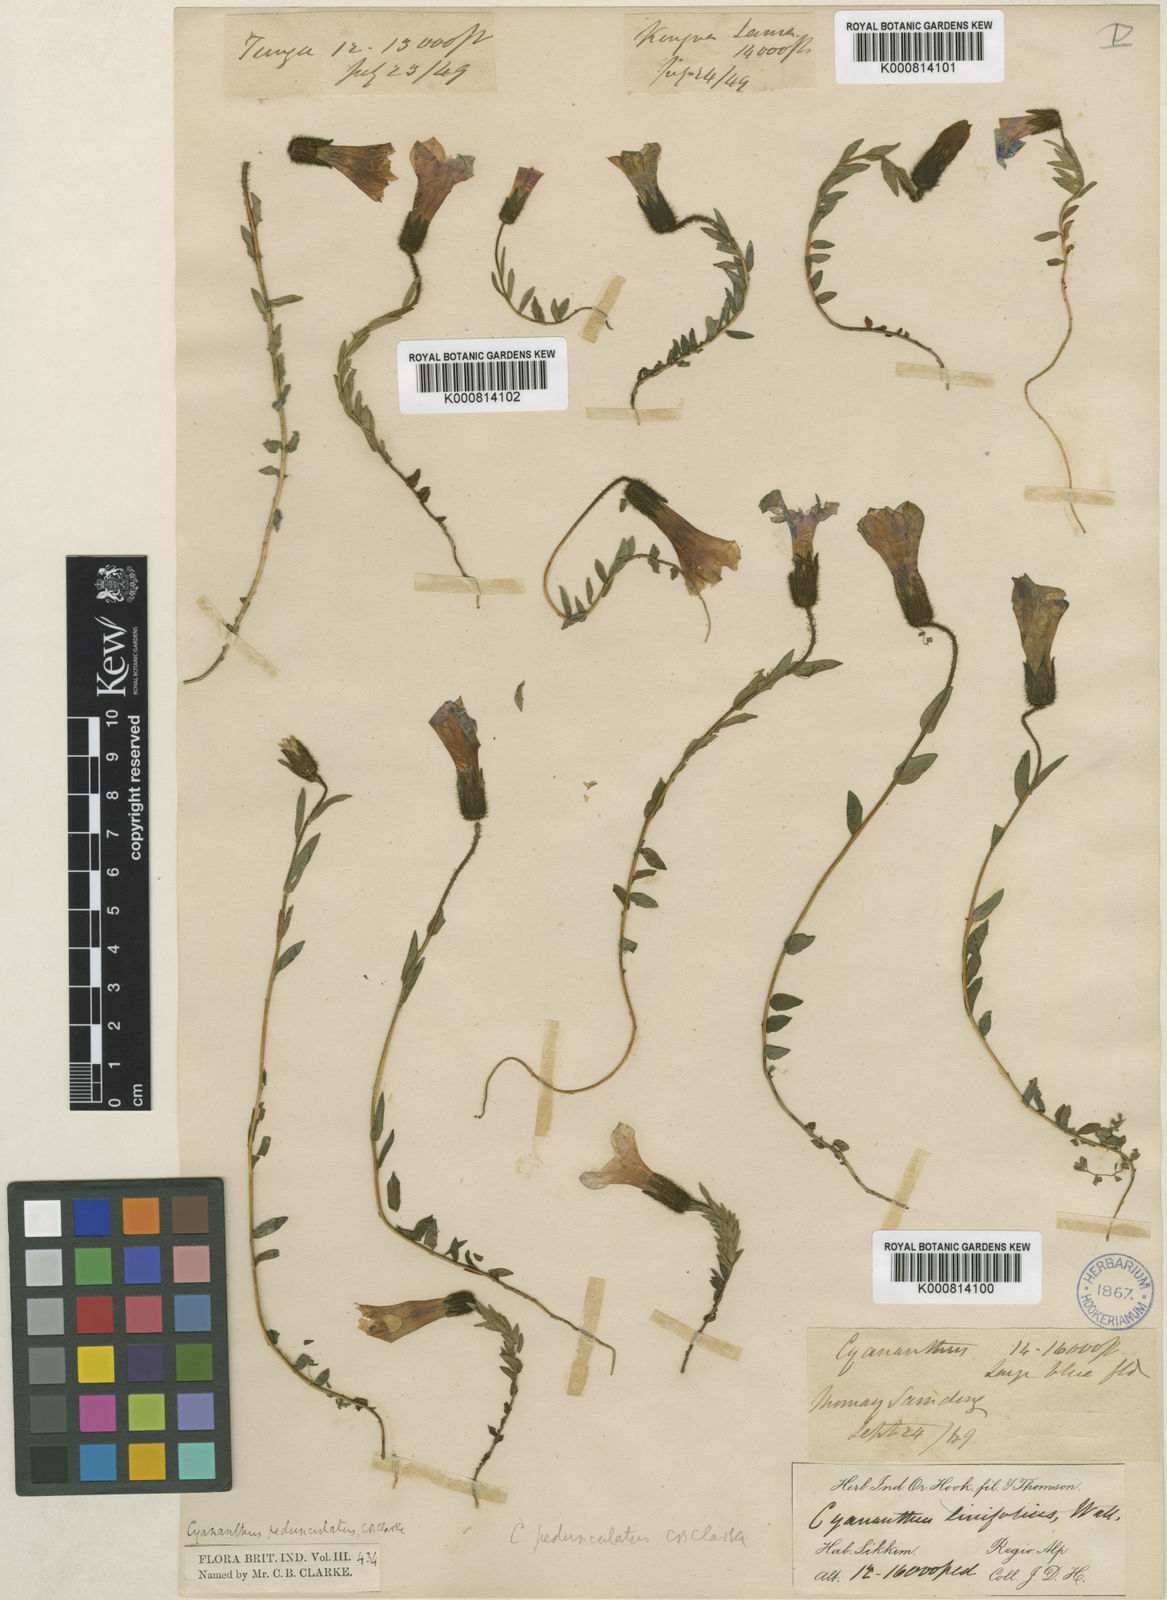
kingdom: Plantae
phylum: Tracheophyta
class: Magnoliopsida
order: Asterales
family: Campanulaceae
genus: Cyananthus
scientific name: Cyananthus pedunculatus
